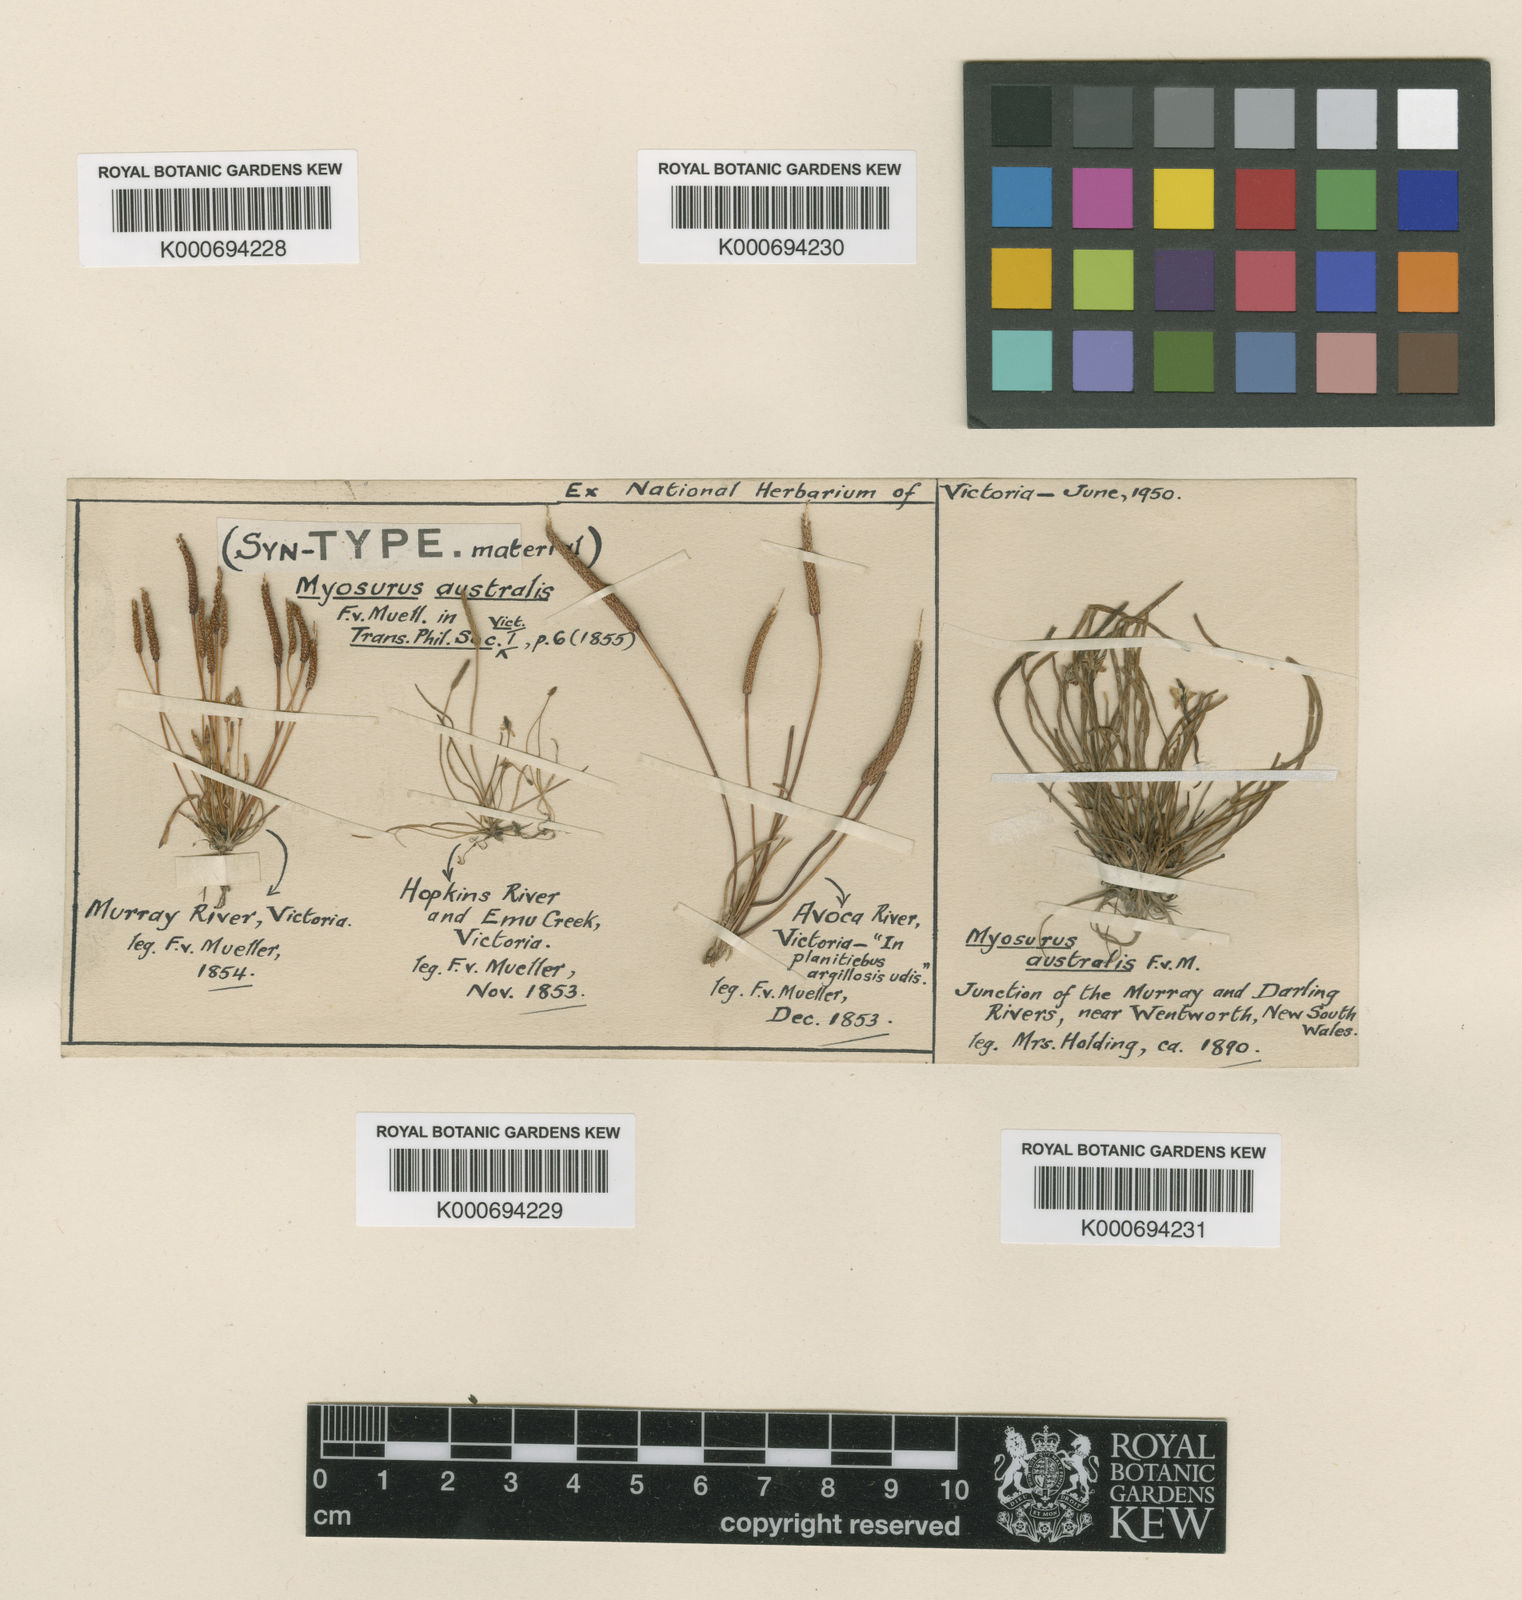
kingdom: Plantae
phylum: Tracheophyta
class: Magnoliopsida
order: Ranunculales
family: Ranunculaceae
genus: Myosurus
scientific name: Myosurus minimus
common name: Mousetail
